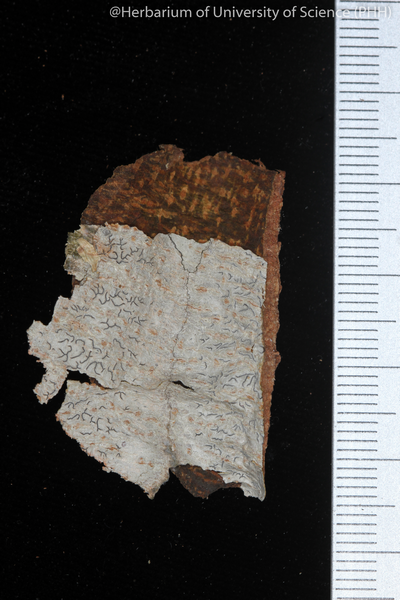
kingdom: Fungi
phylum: Ascomycota
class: Lecanoromycetes
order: Ostropales
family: Graphidaceae
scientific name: Graphidaceae
